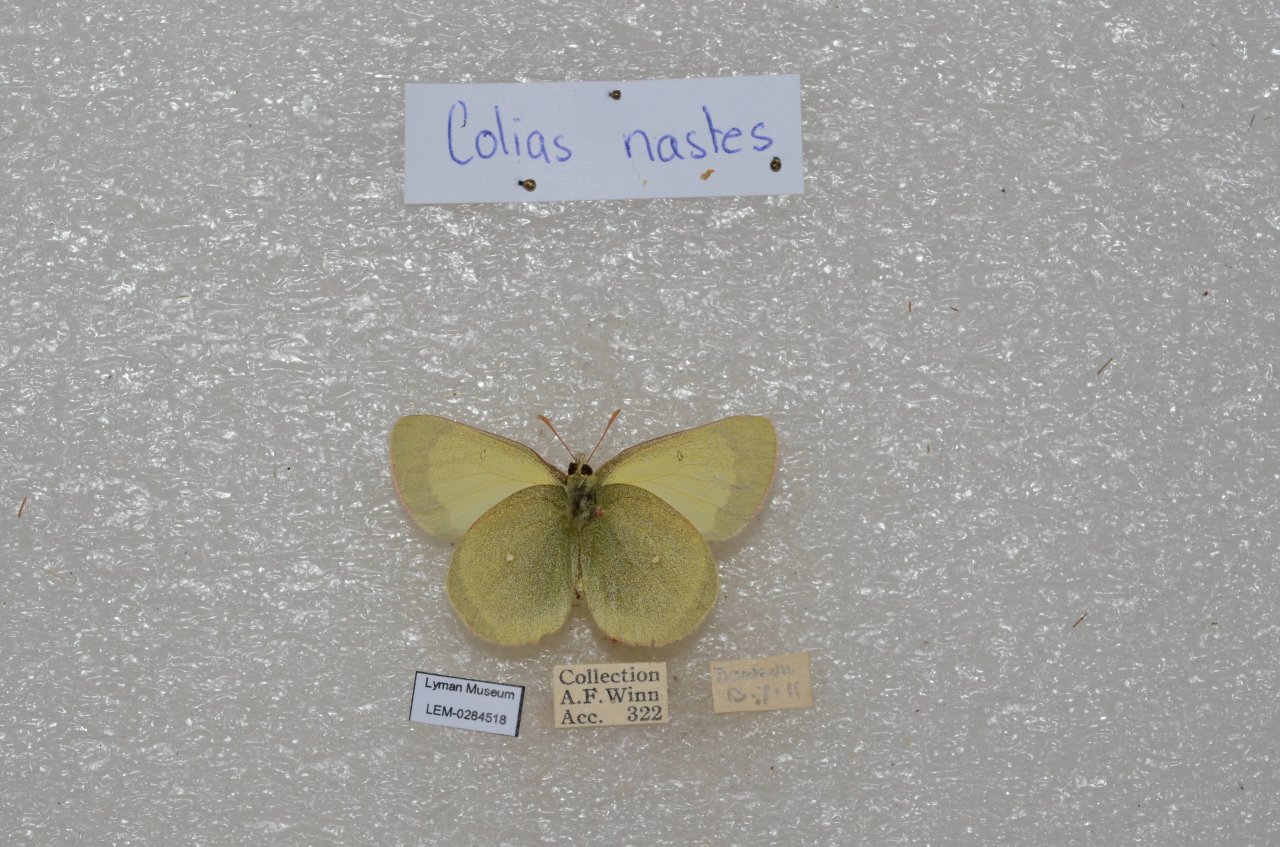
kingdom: Animalia
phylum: Arthropoda
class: Insecta
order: Lepidoptera
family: Pieridae
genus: Colias
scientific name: Colias palaeno
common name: Chippewa Sulphur
